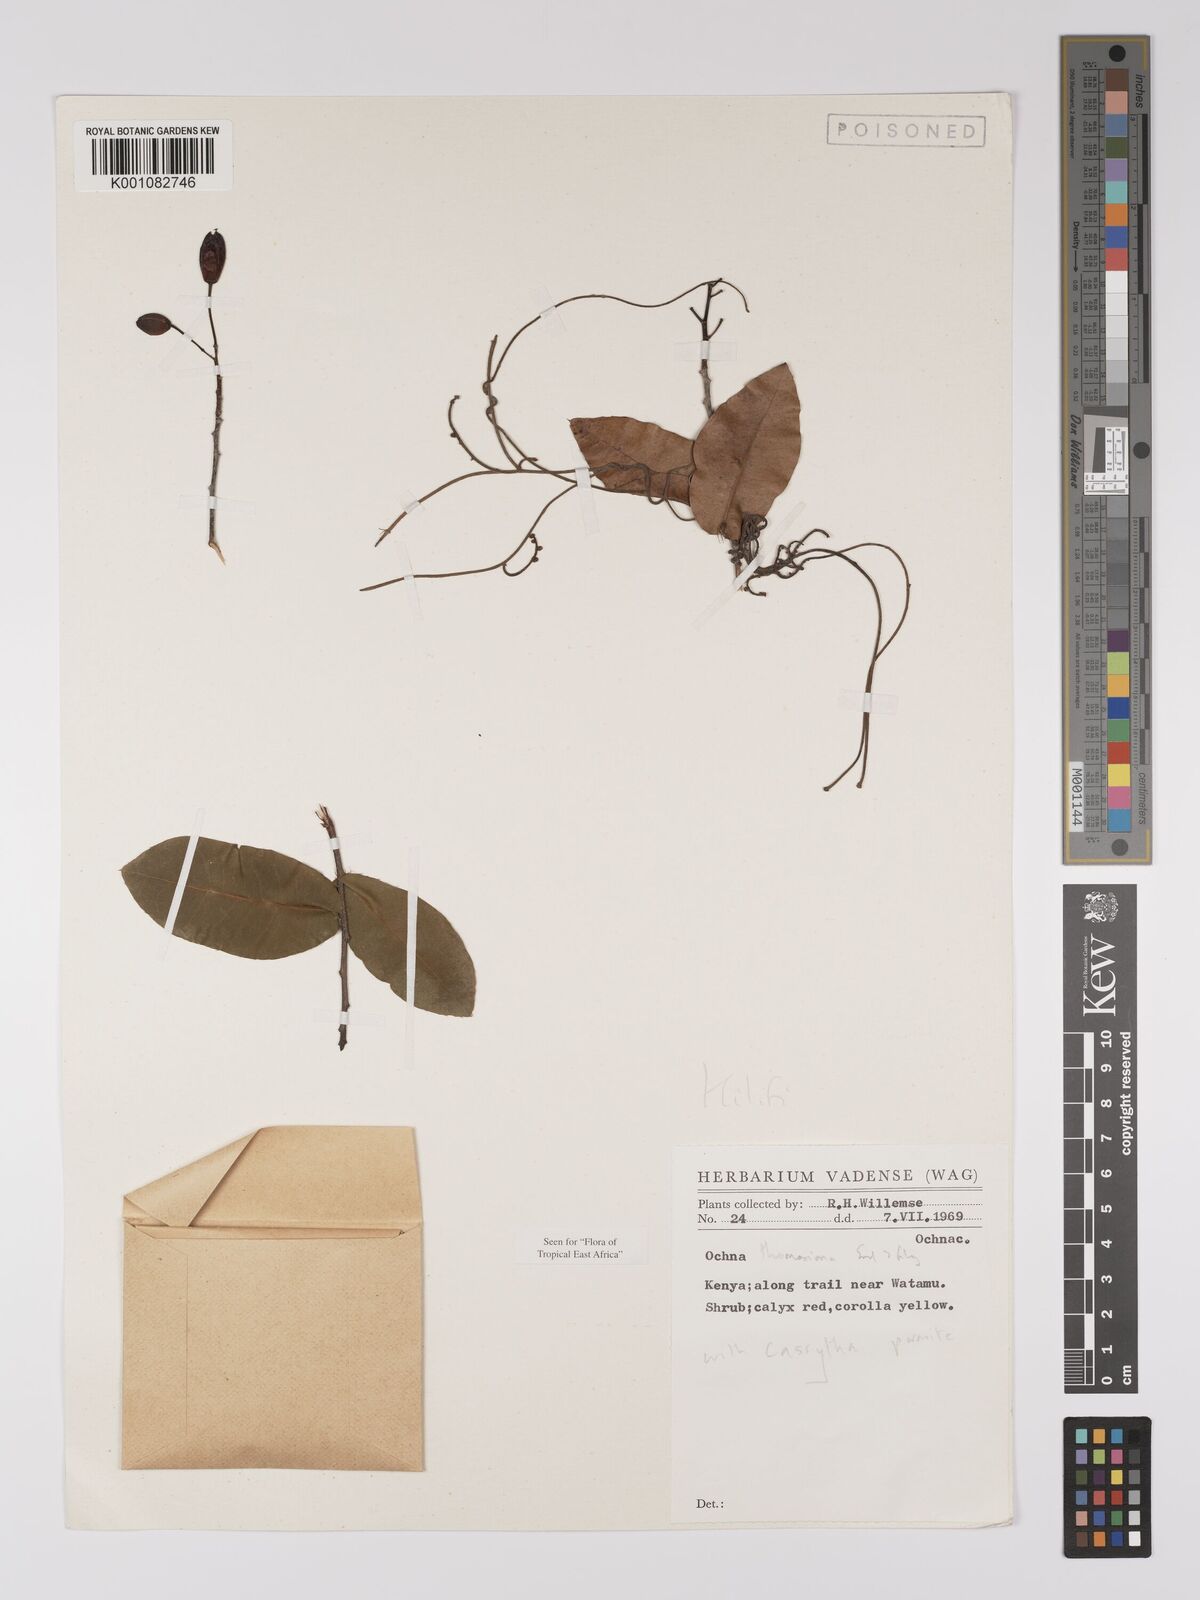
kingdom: Plantae
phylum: Tracheophyta
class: Magnoliopsida
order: Malpighiales
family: Ochnaceae
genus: Ochna
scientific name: Ochna thomasiana
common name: Thomas' bird's-eye bush
